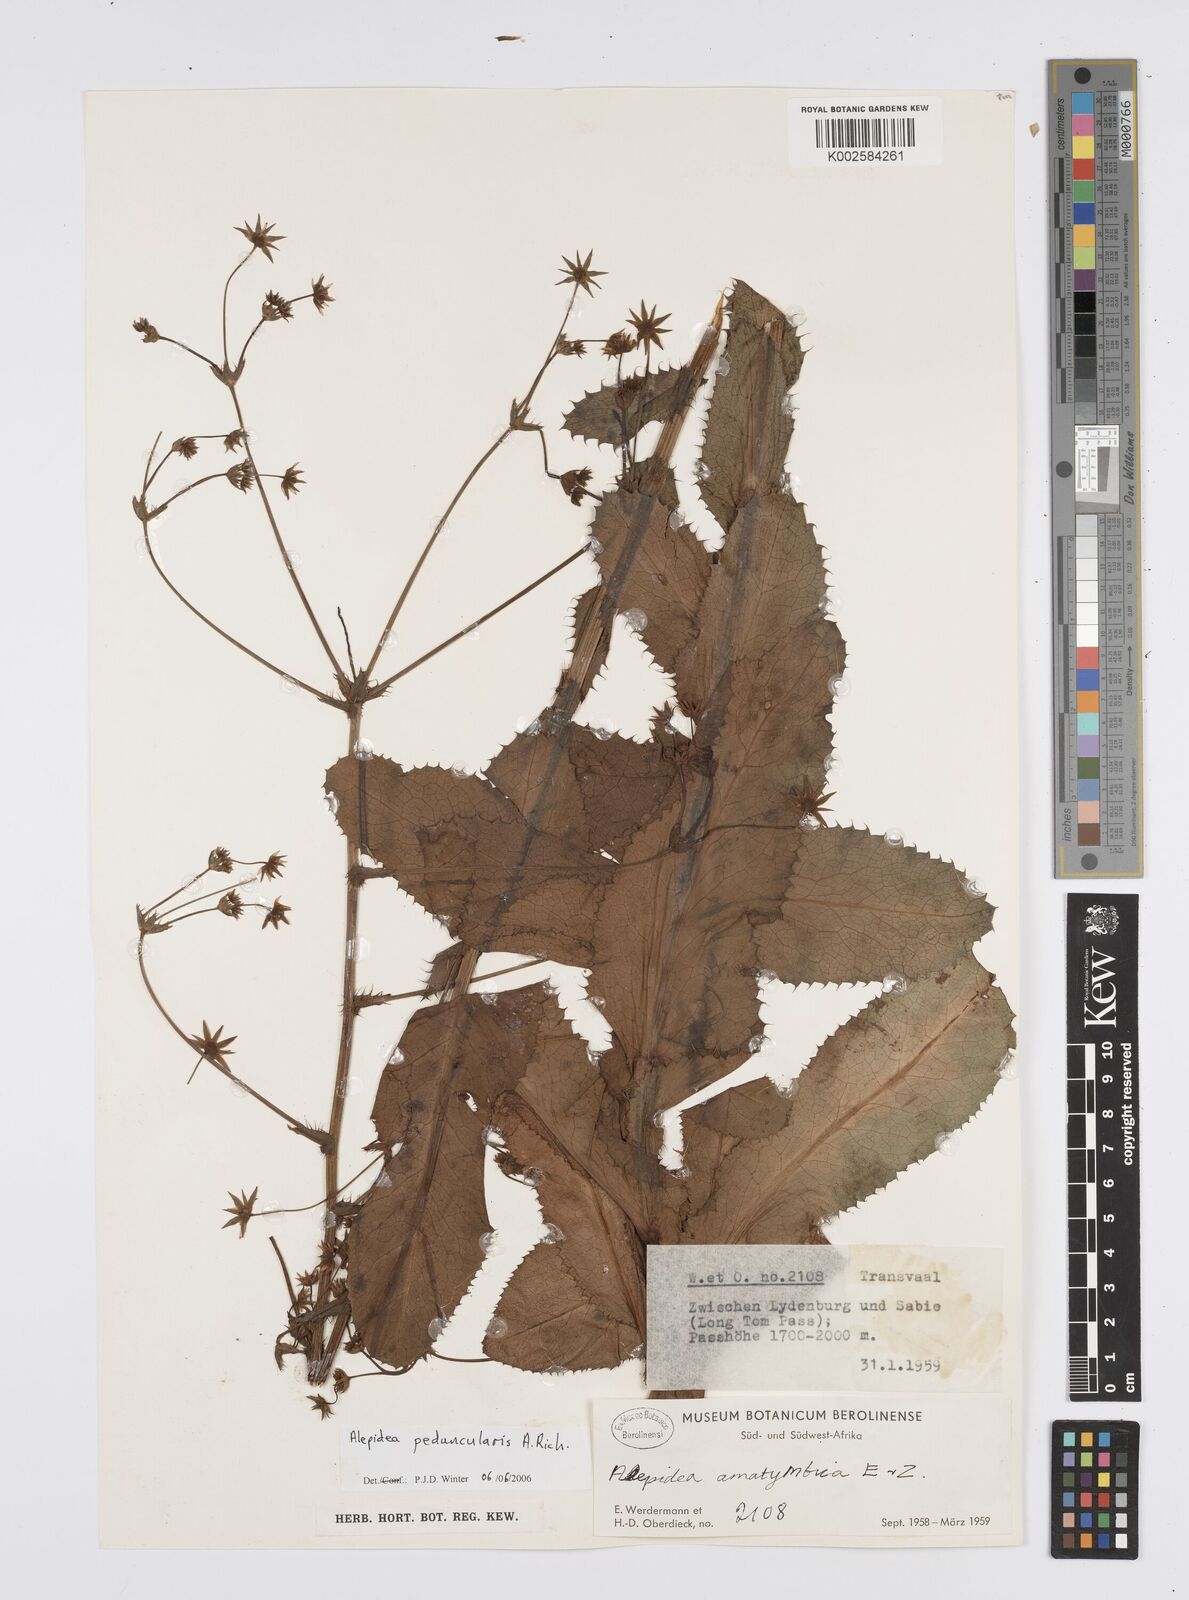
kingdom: Plantae
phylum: Tracheophyta
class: Magnoliopsida
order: Apiales
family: Apiaceae
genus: Alepidea
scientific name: Alepidea peduncularis
